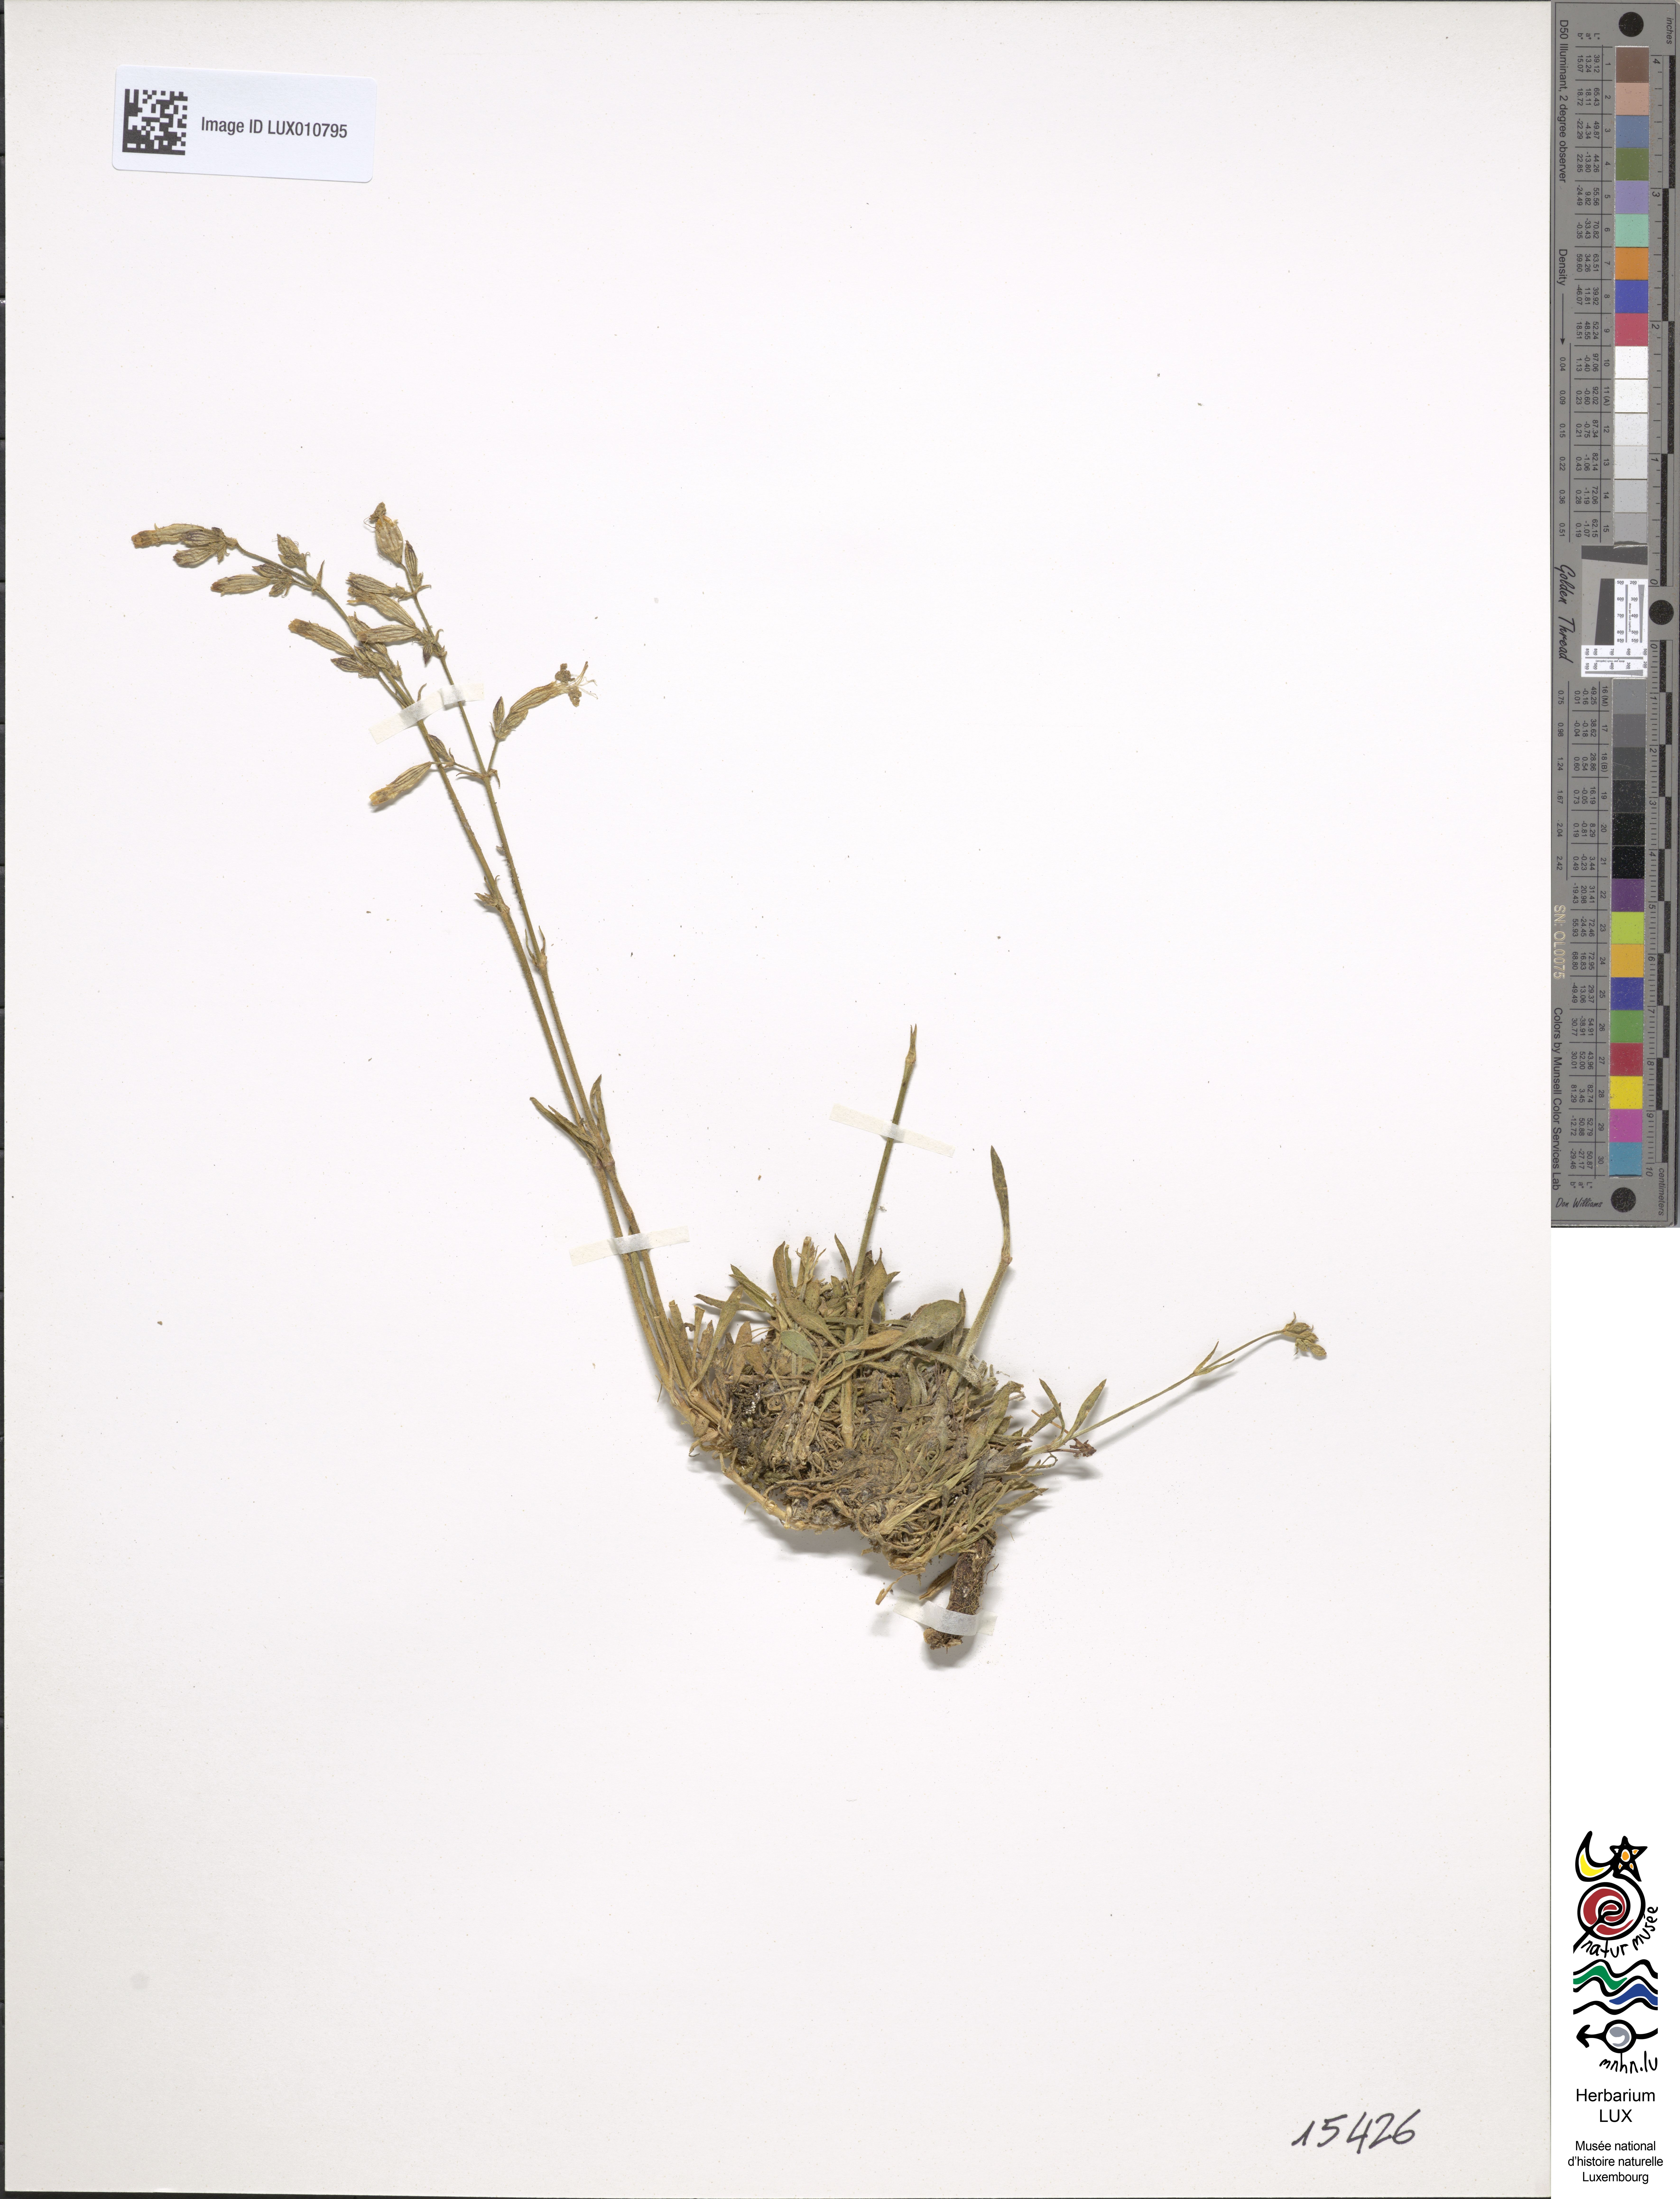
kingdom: Plantae
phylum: Tracheophyta
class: Magnoliopsida
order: Caryophyllales
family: Caryophyllaceae
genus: Silene
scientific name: Silene nutans
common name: Nottingham catchfly
